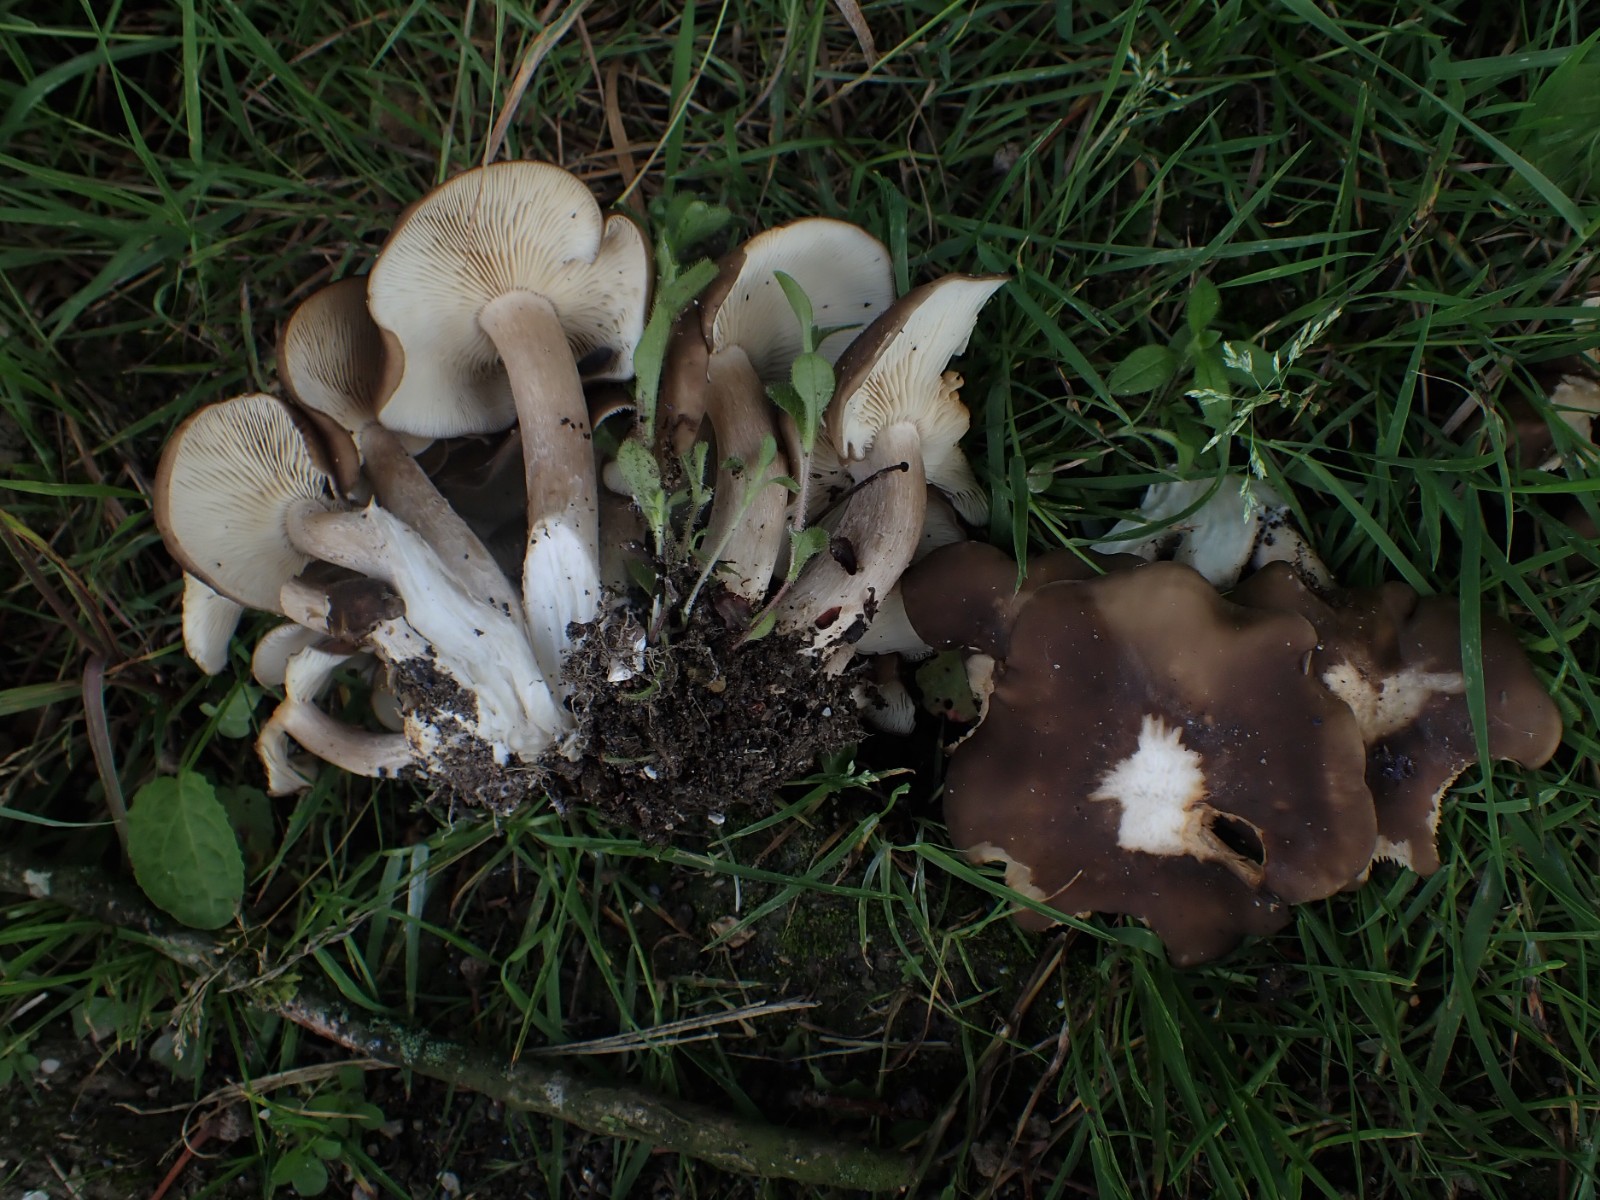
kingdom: Fungi
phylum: Basidiomycota
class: Agaricomycetes
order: Agaricales
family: Lyophyllaceae
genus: Lyophyllum
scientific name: Lyophyllum decastes
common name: røggrå gråblad
